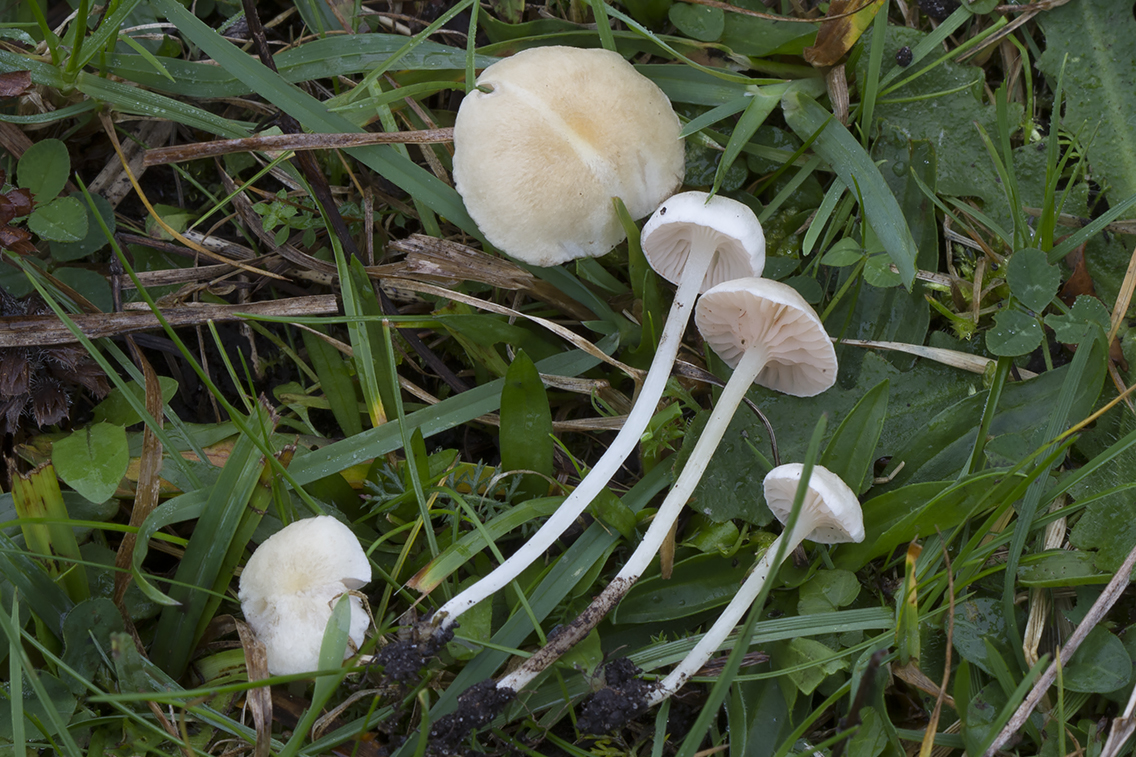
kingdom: Fungi
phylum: Basidiomycota
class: Agaricomycetes
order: Agaricales
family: Entolomataceae
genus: Entoloma
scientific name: Entoloma sericellum
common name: silkehvid rødblad
